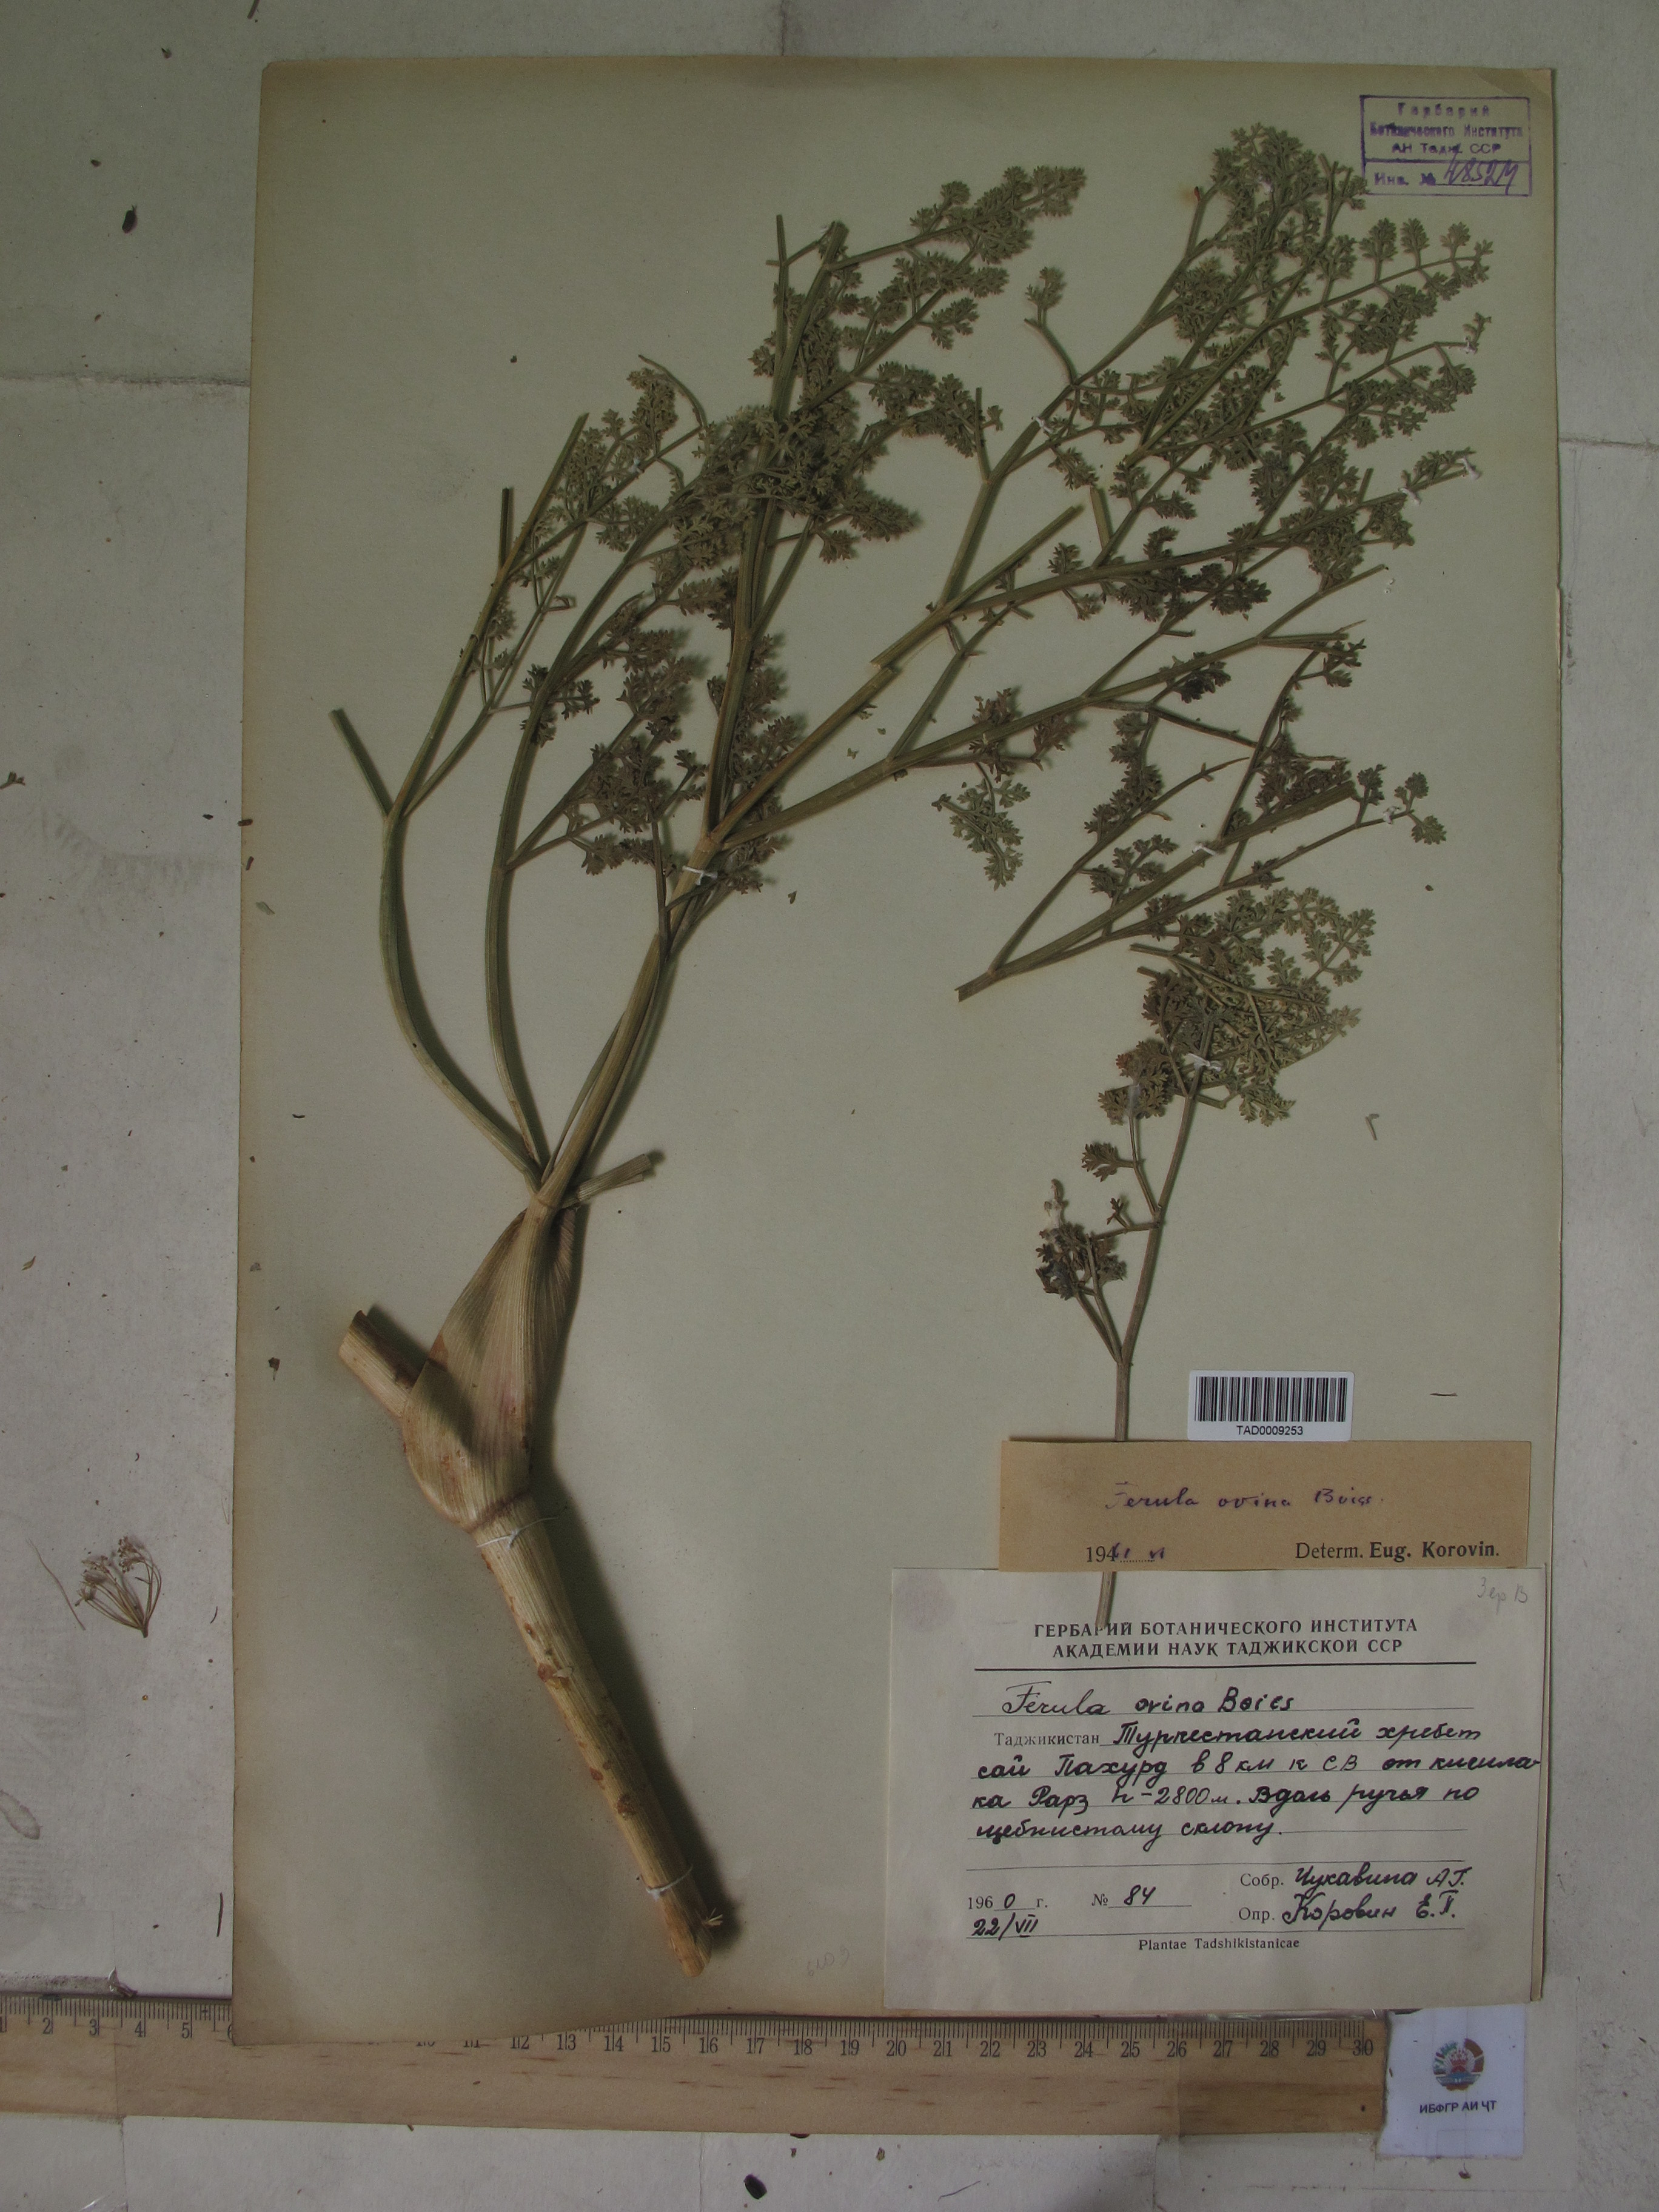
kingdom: Plantae
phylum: Tracheophyta
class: Magnoliopsida
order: Apiales
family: Apiaceae
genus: Ferula
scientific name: Ferula ovina
